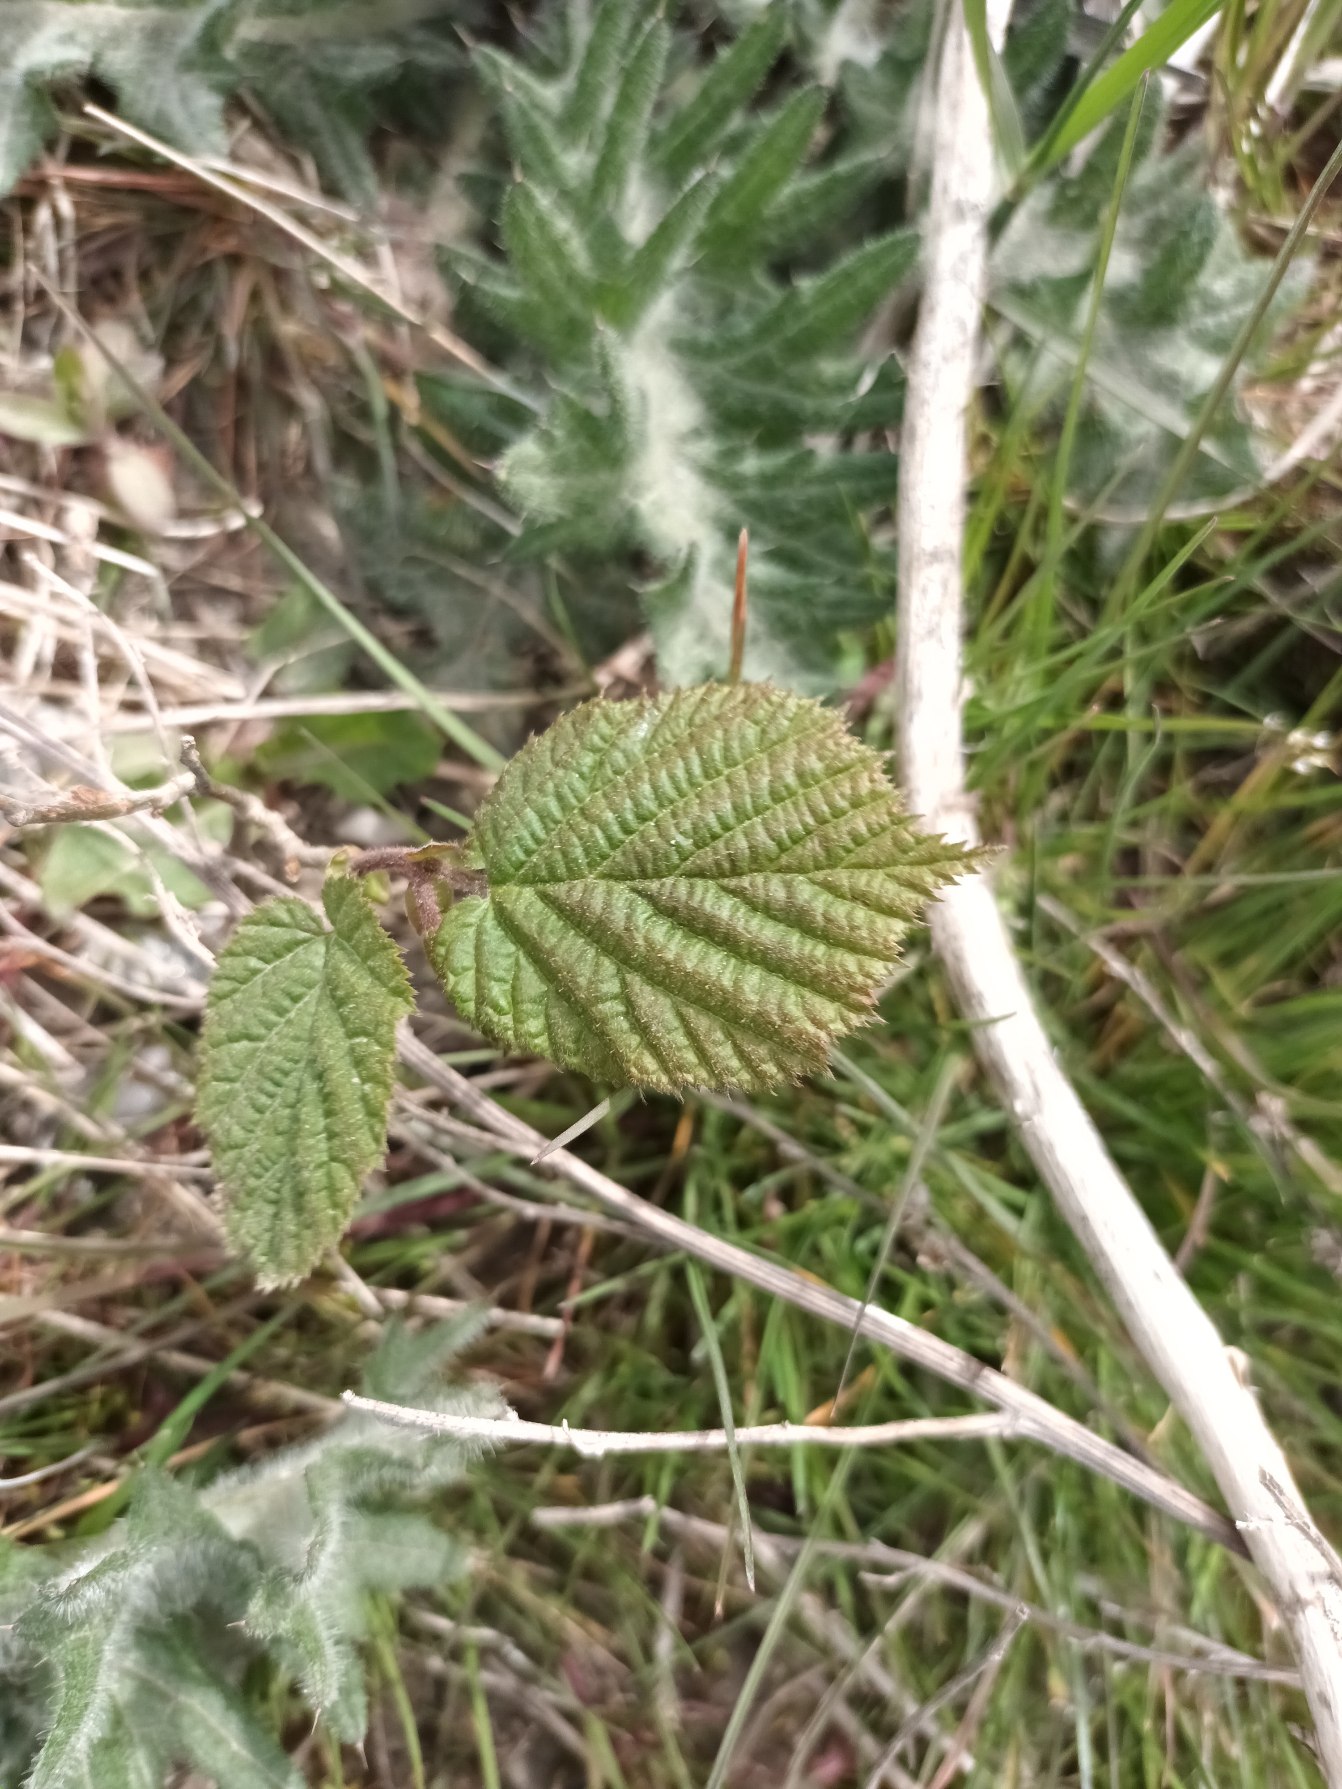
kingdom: Plantae
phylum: Tracheophyta
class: Magnoliopsida
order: Fagales
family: Betulaceae
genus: Corylus
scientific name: Corylus avellana
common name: Hassel
